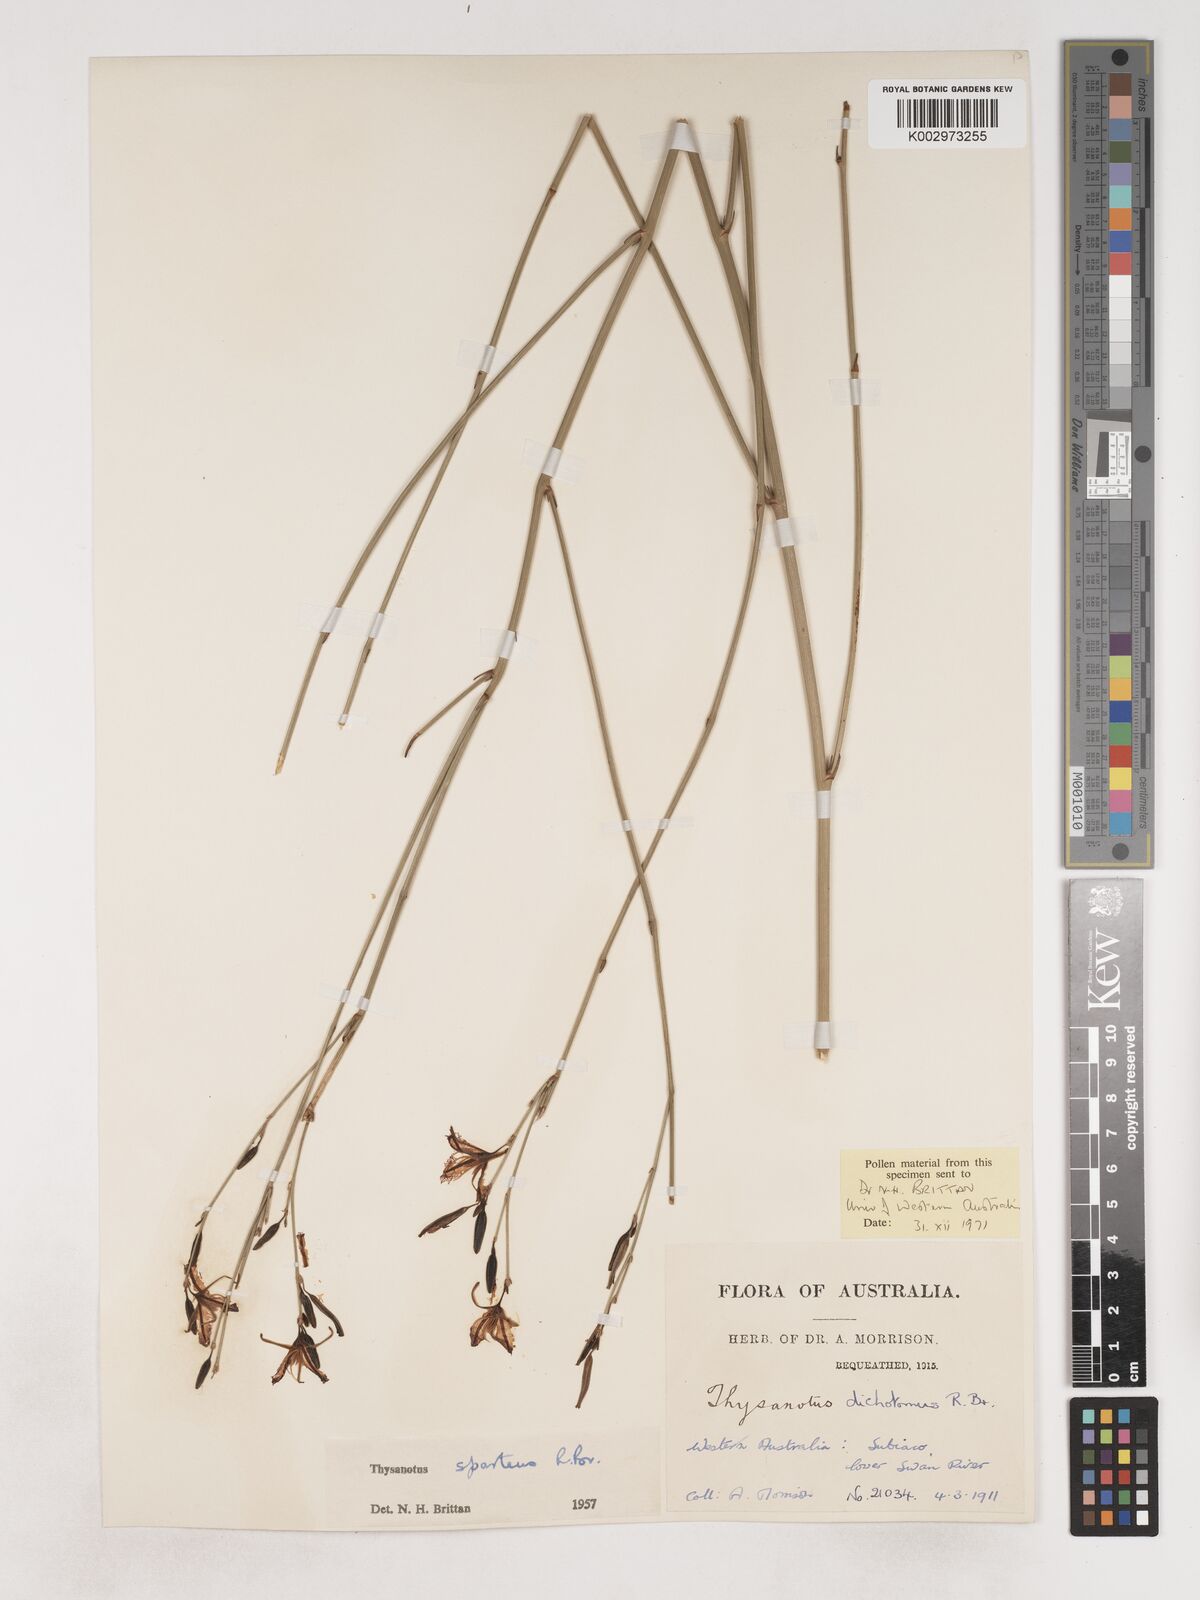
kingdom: Plantae
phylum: Tracheophyta
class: Liliopsida
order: Asparagales
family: Asparagaceae
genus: Thysanotus
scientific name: Thysanotus sparteus
